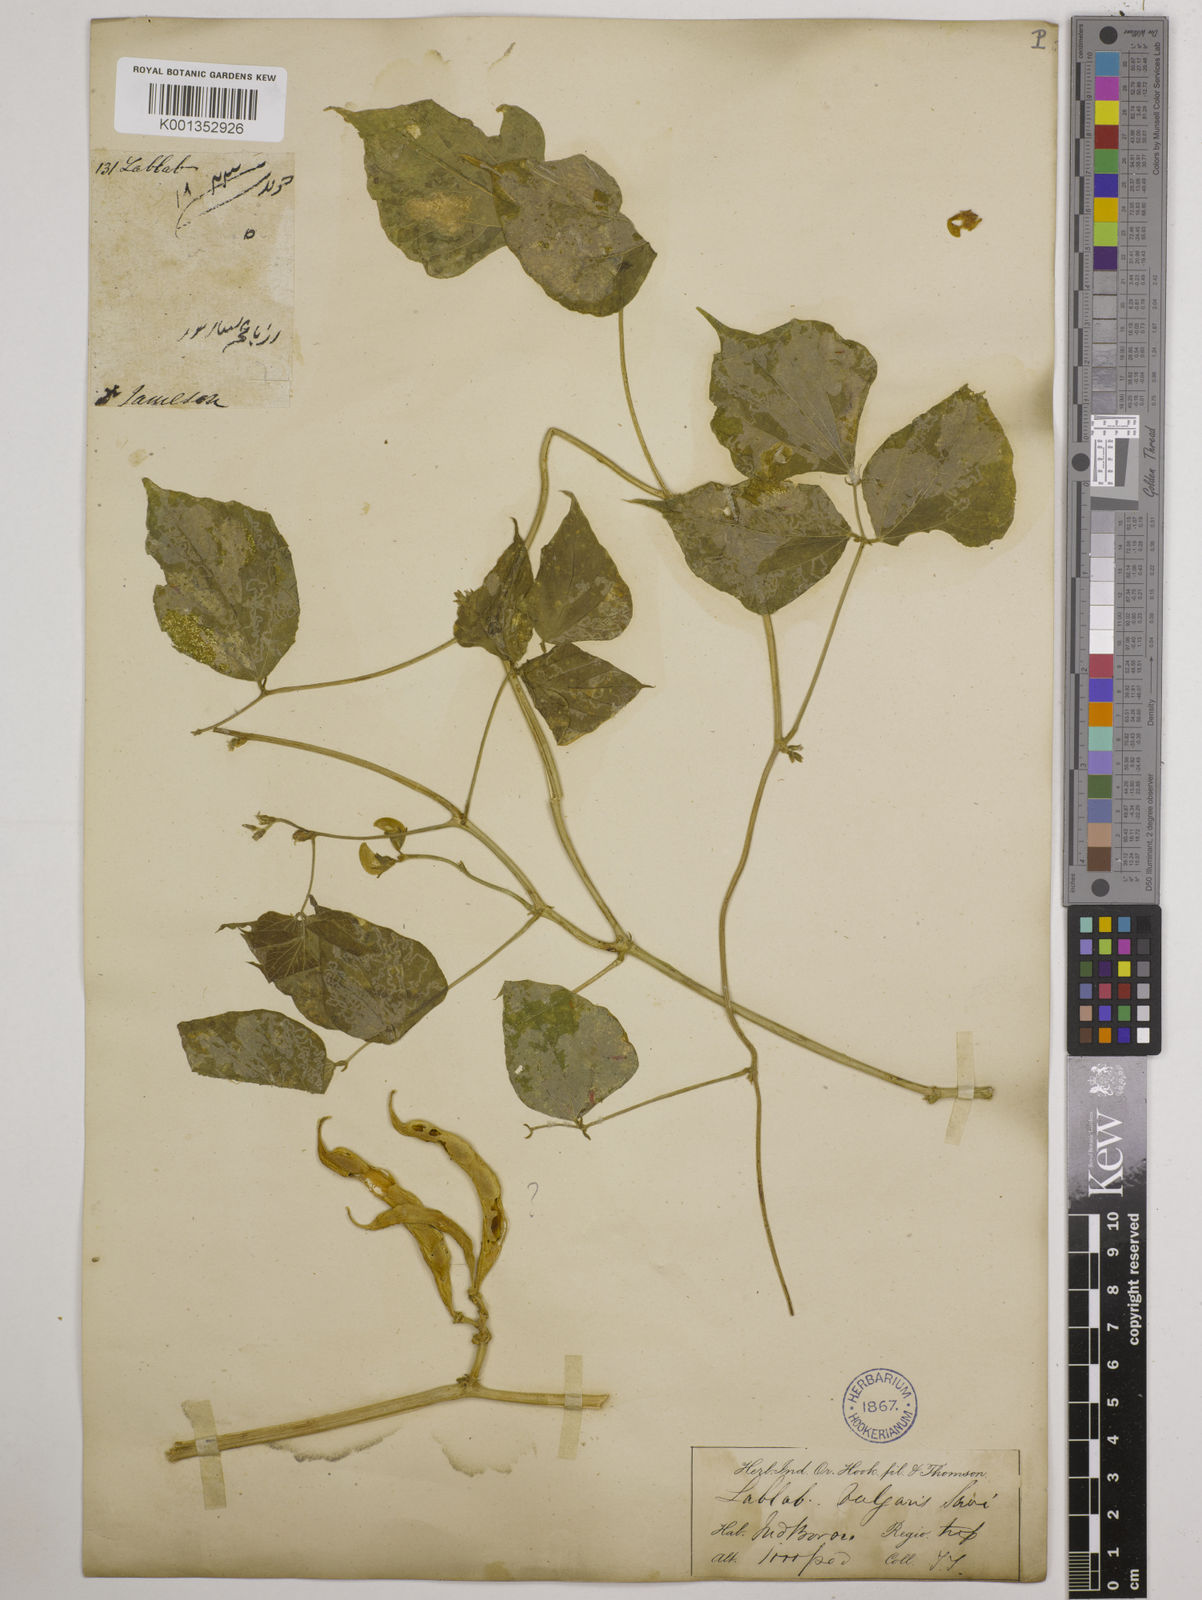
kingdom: Plantae
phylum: Tracheophyta
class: Magnoliopsida
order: Fabales
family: Fabaceae
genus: Lablab
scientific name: Lablab purpureus
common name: Lablab-bean
